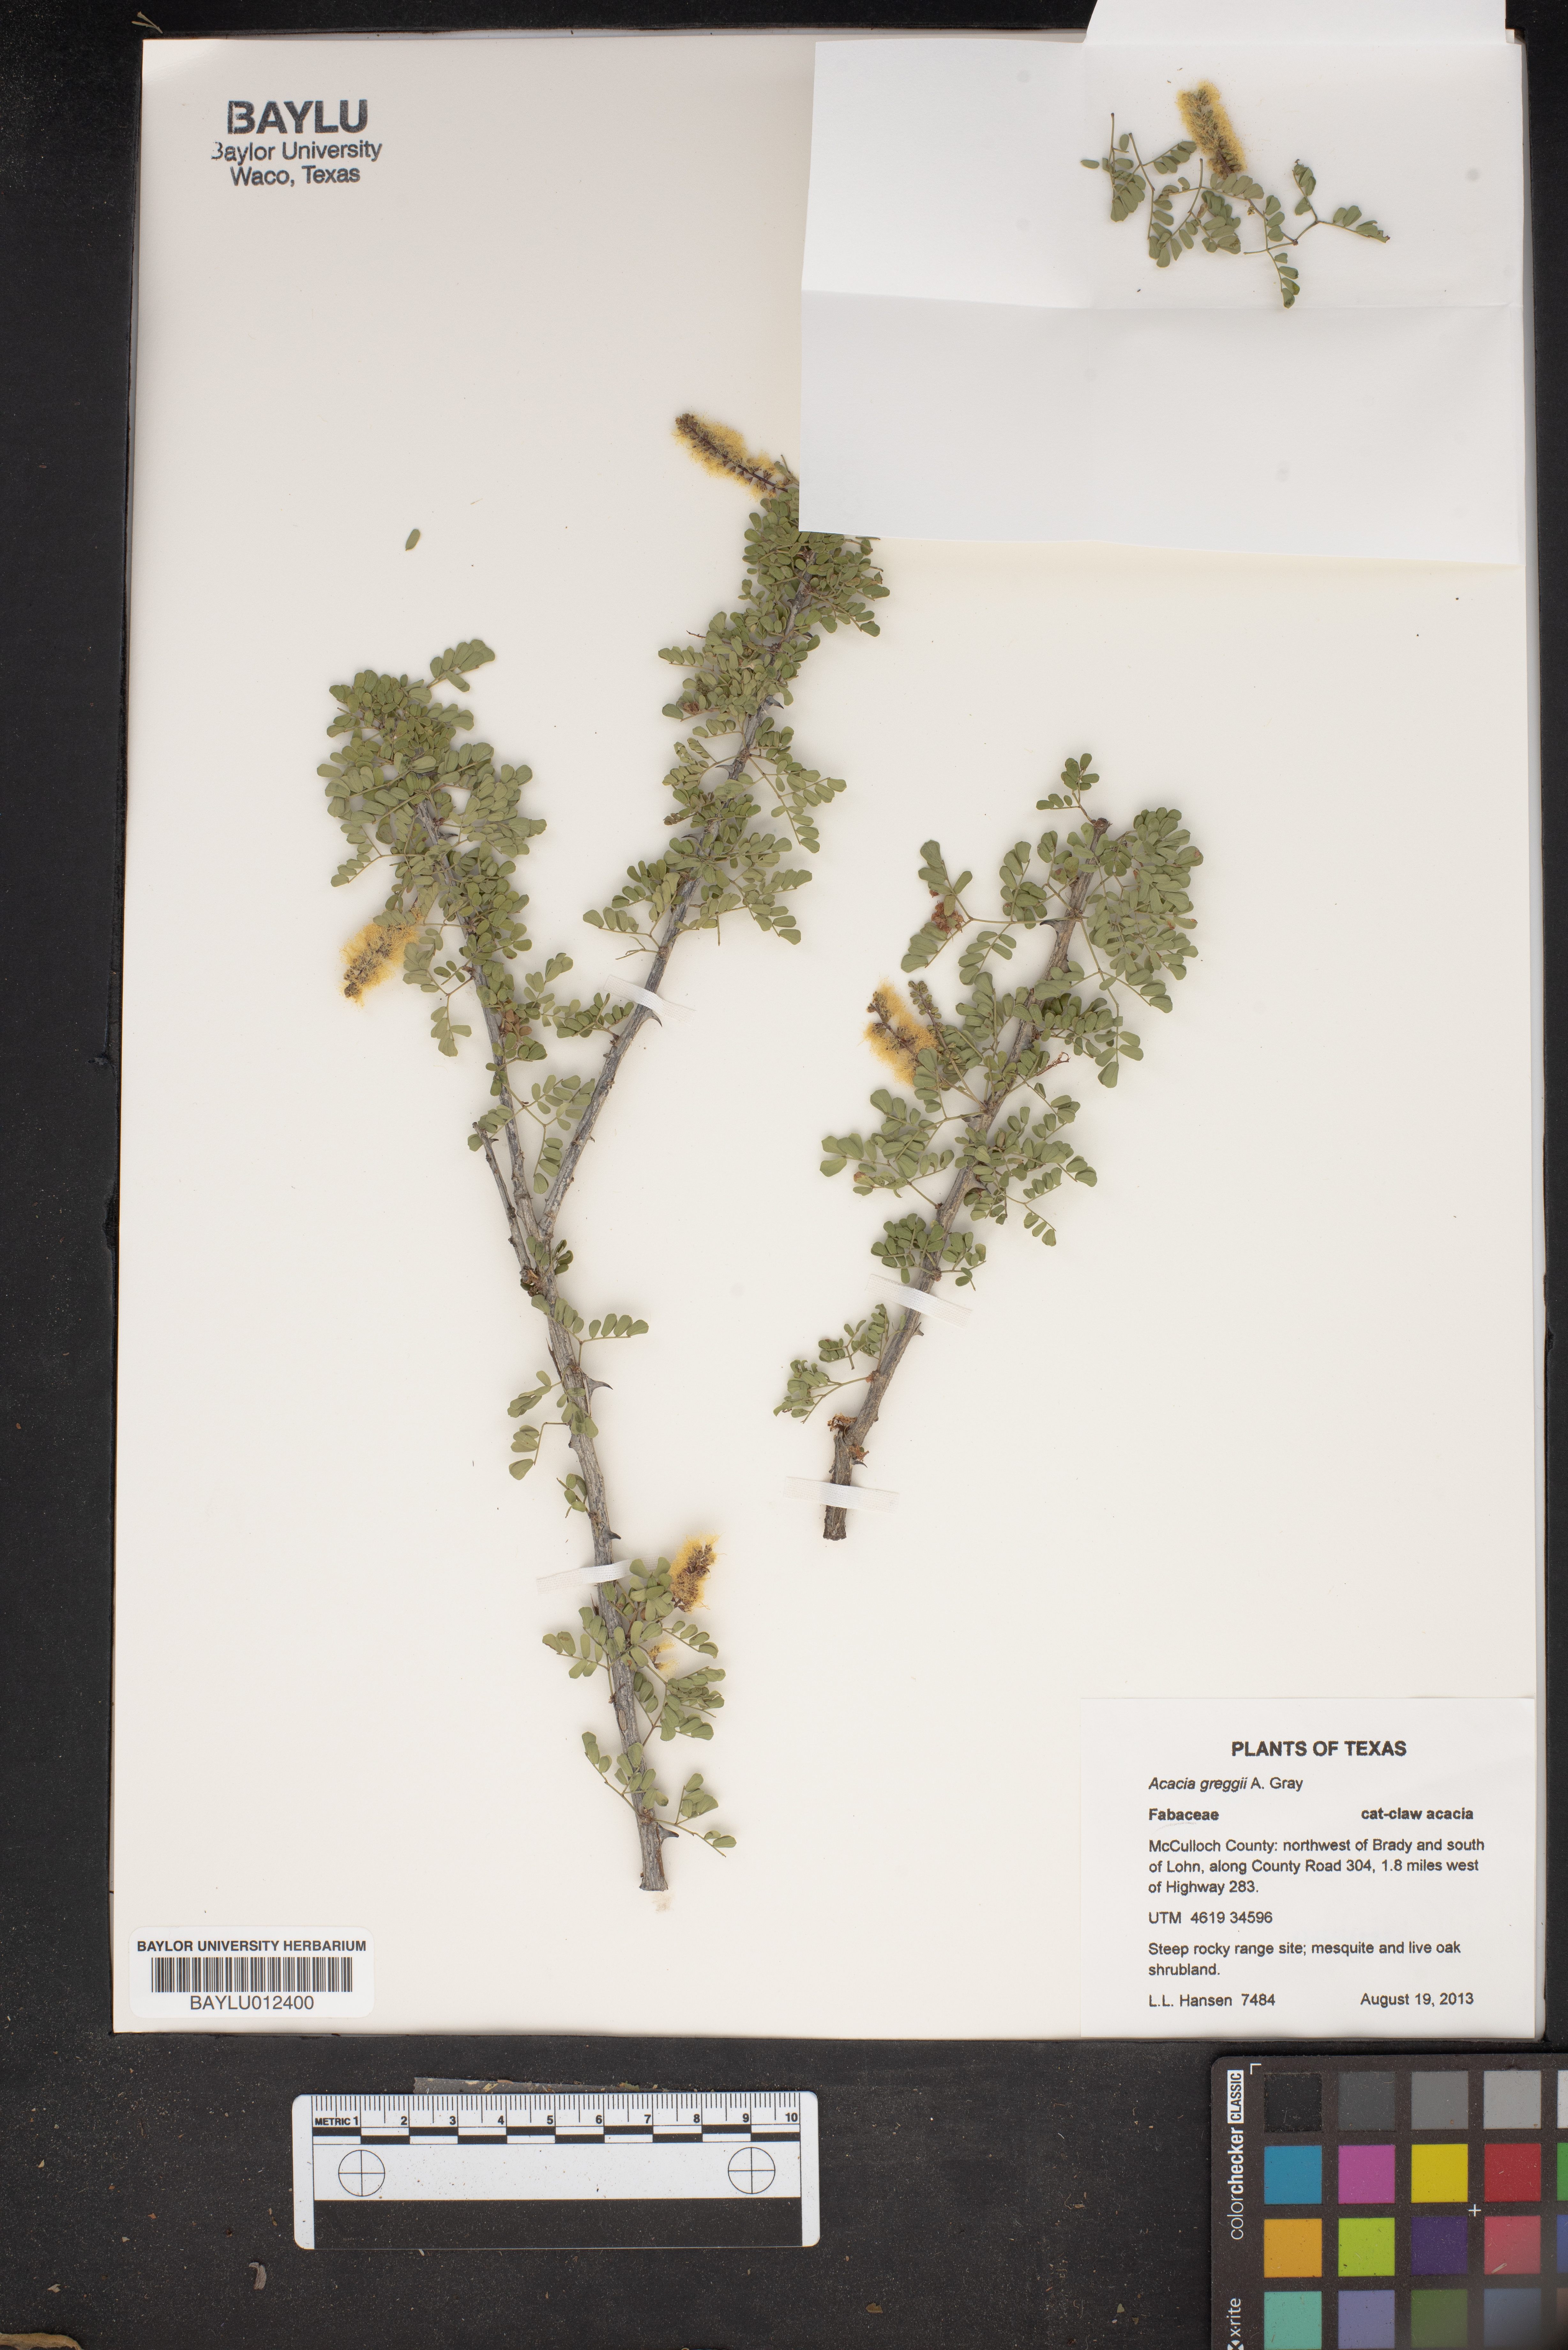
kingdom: Plantae
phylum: Tracheophyta
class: Magnoliopsida
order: Fabales
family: Fabaceae
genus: Senegalia
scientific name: Senegalia greggii
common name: Texas-mimosa
